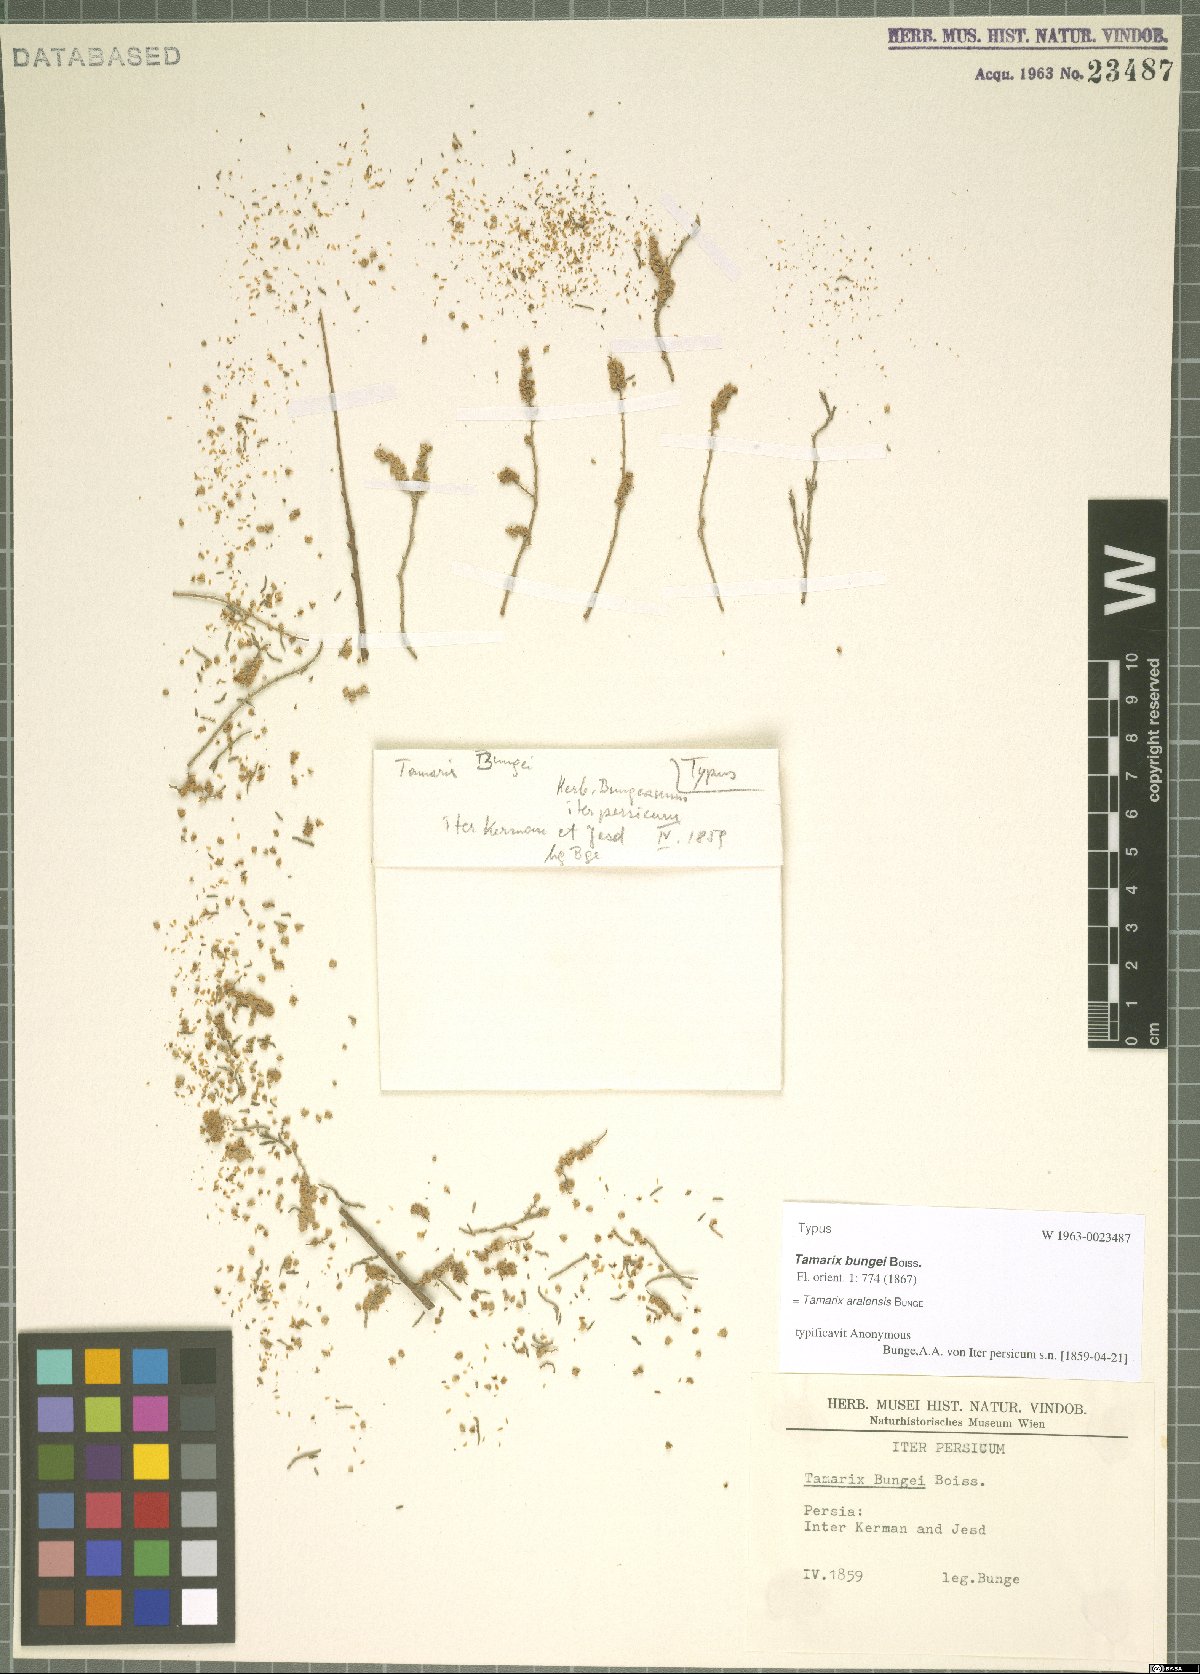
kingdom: Plantae
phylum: Tracheophyta
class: Magnoliopsida
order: Caryophyllales
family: Tamaricaceae
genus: Tamarix
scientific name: Tamarix aralensis
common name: Russian tamarisk
